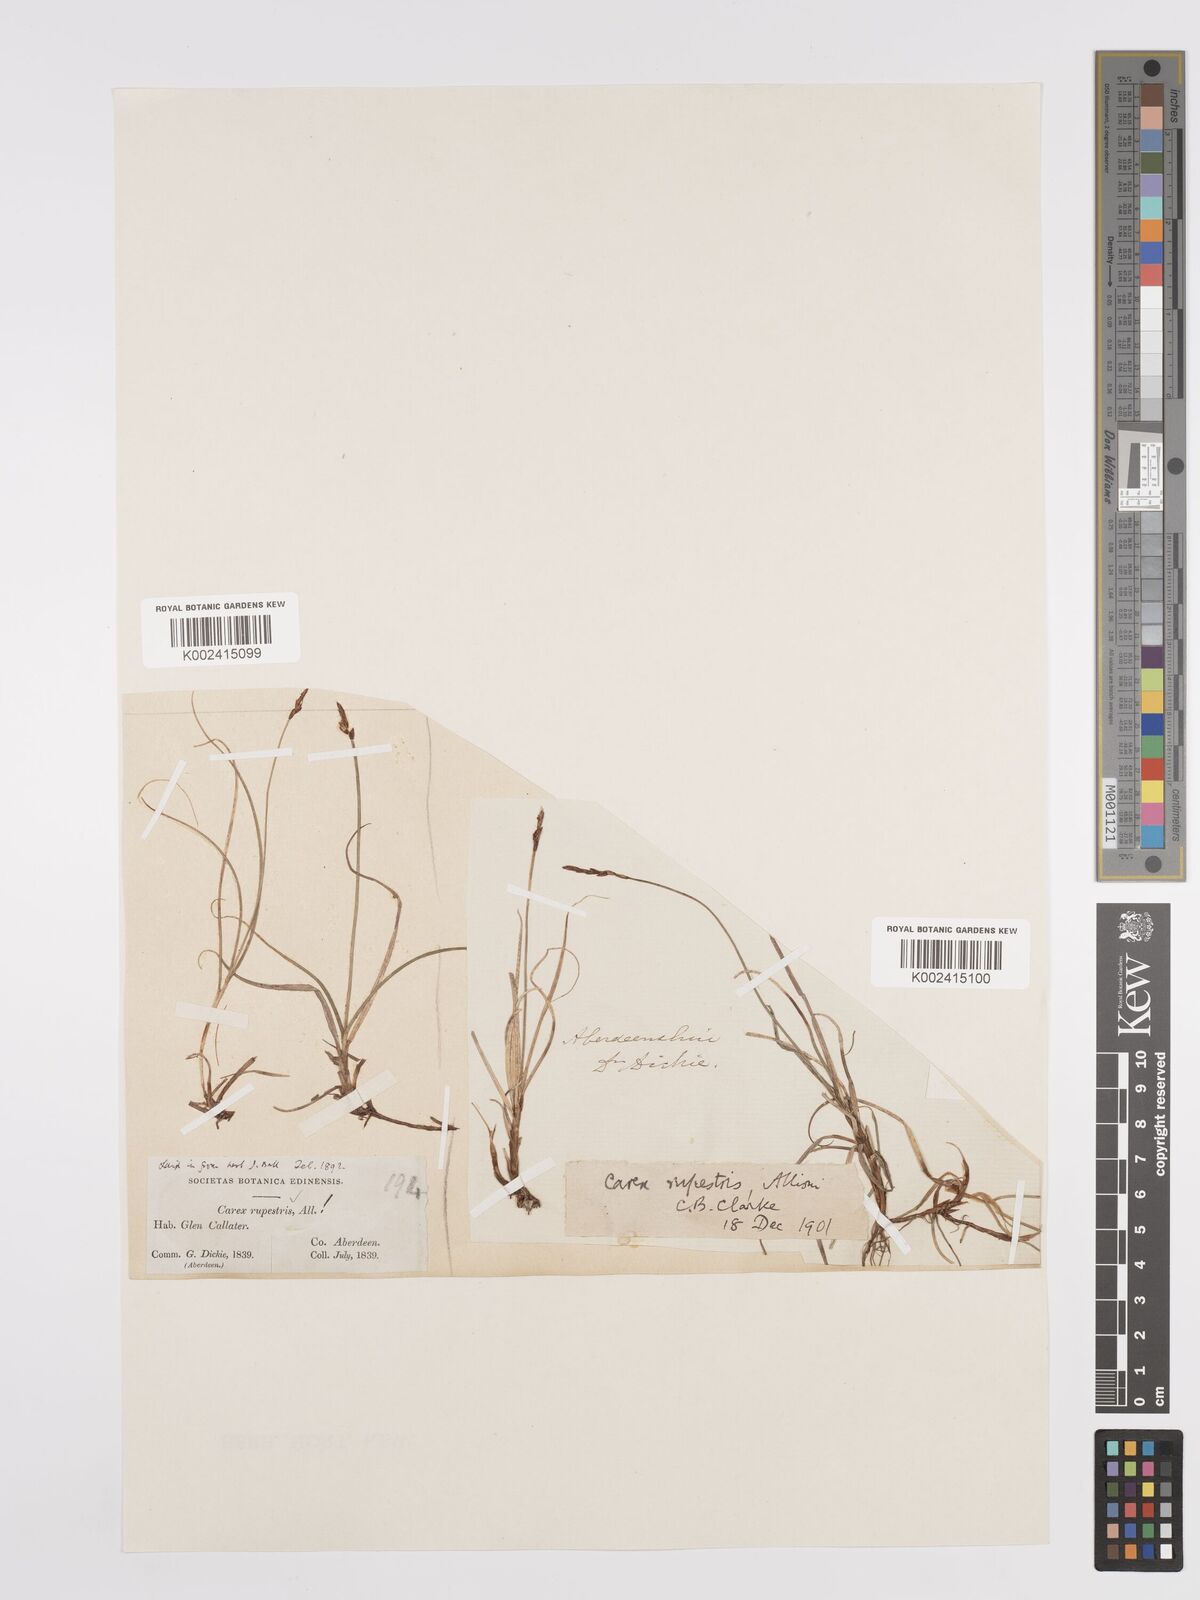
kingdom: Plantae
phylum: Tracheophyta
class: Liliopsida
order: Poales
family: Cyperaceae
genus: Carex
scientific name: Carex rupestris
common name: Rock sedge
